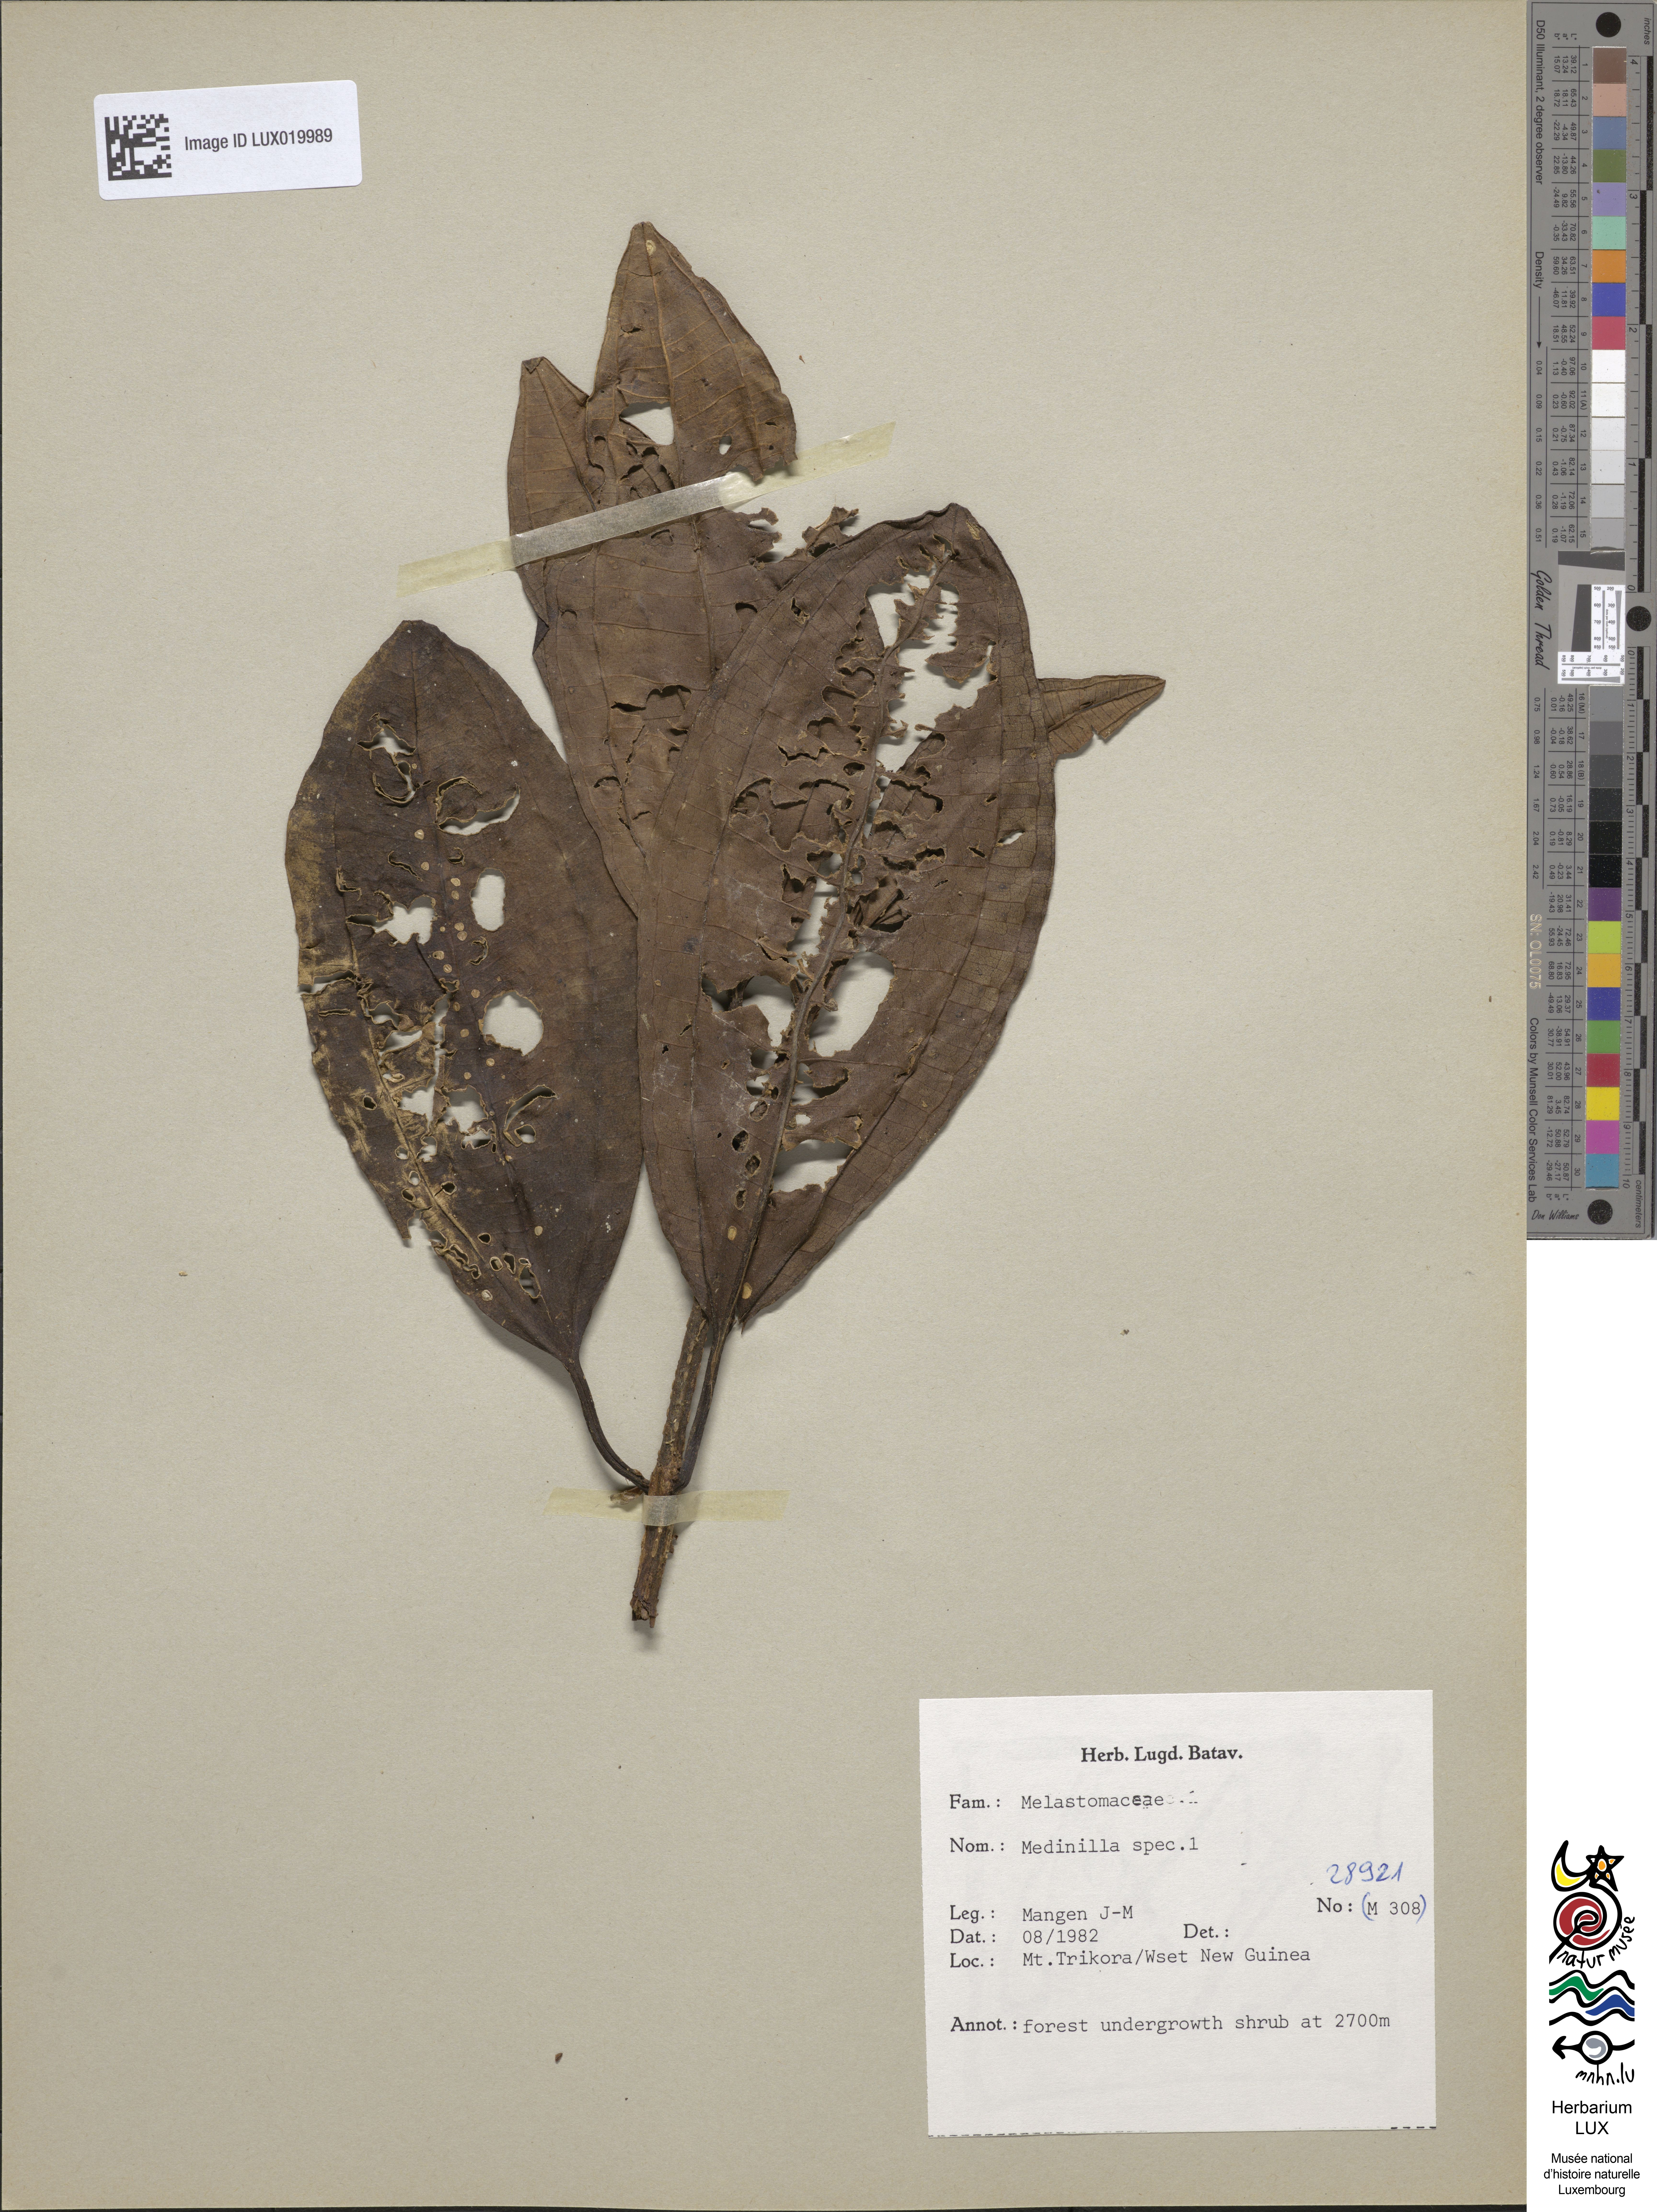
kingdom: Plantae
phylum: Tracheophyta
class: Magnoliopsida
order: Myrtales
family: Melastomataceae
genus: Medinilla
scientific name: Medinilla
